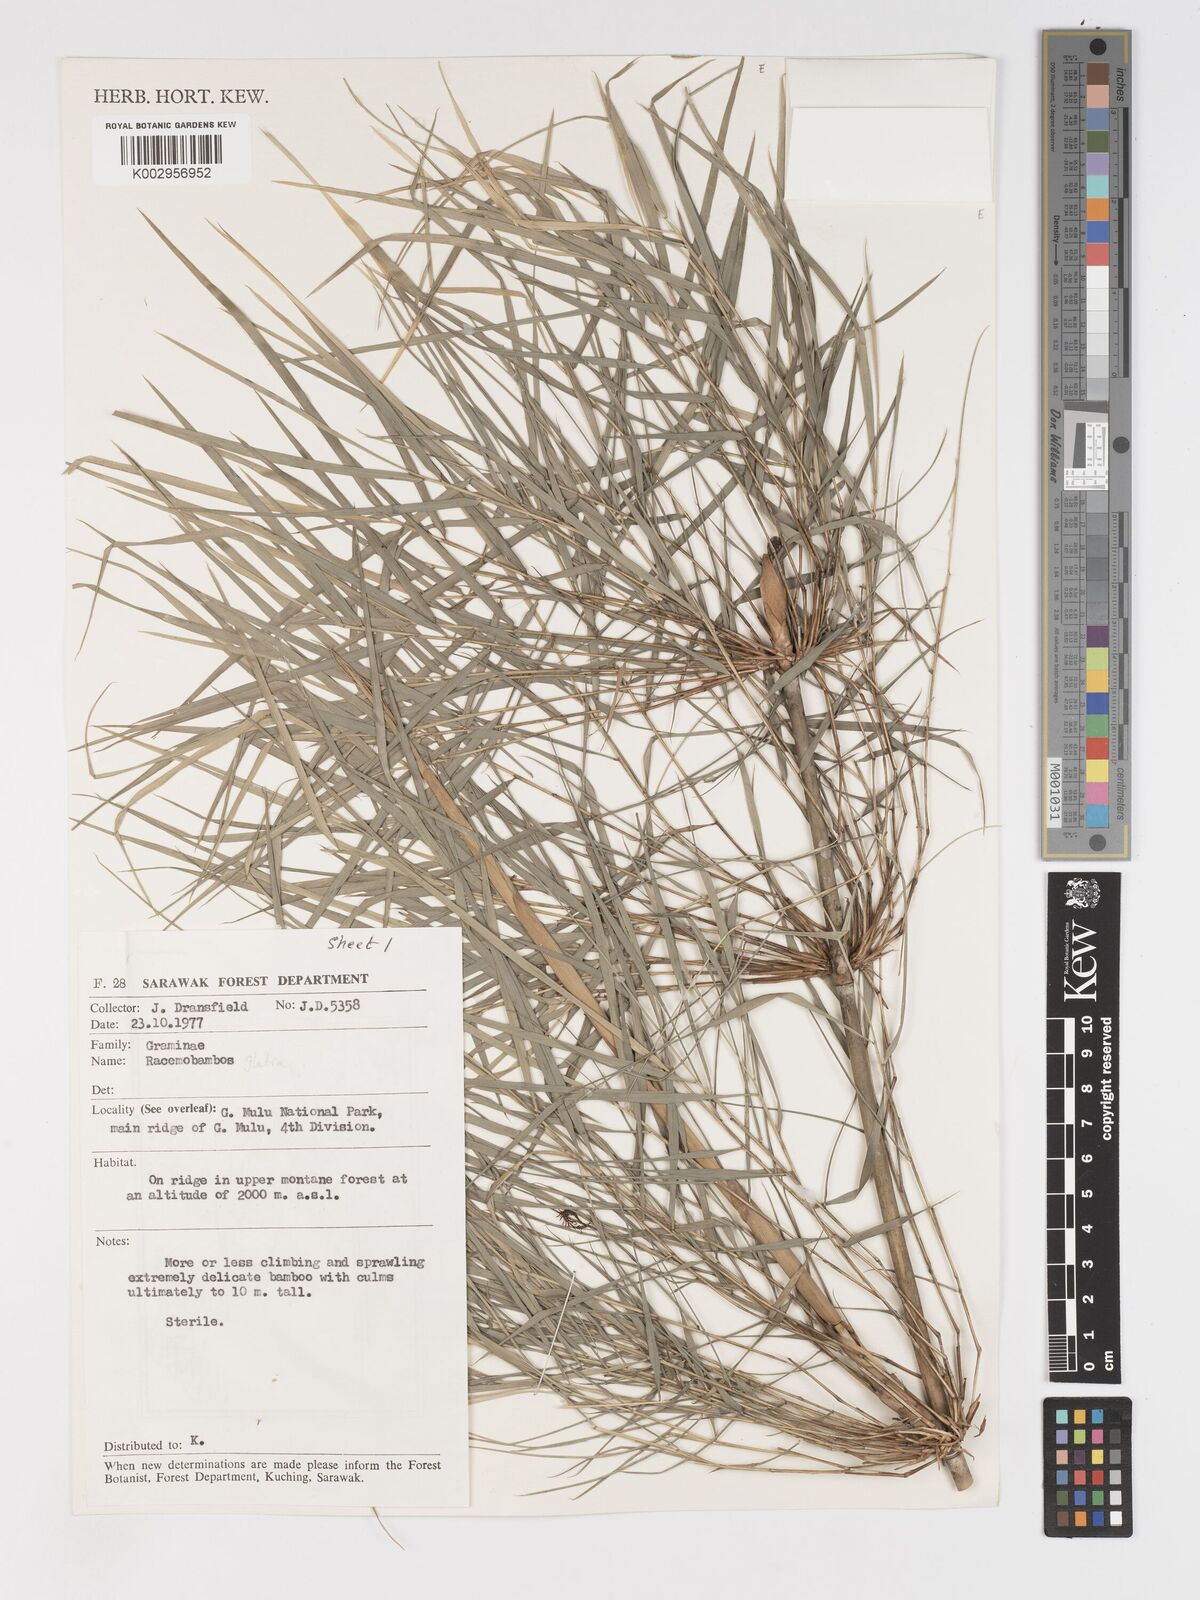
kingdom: Plantae
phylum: Tracheophyta
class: Liliopsida
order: Poales
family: Poaceae
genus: Racemobambos
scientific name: Racemobambos glabra
